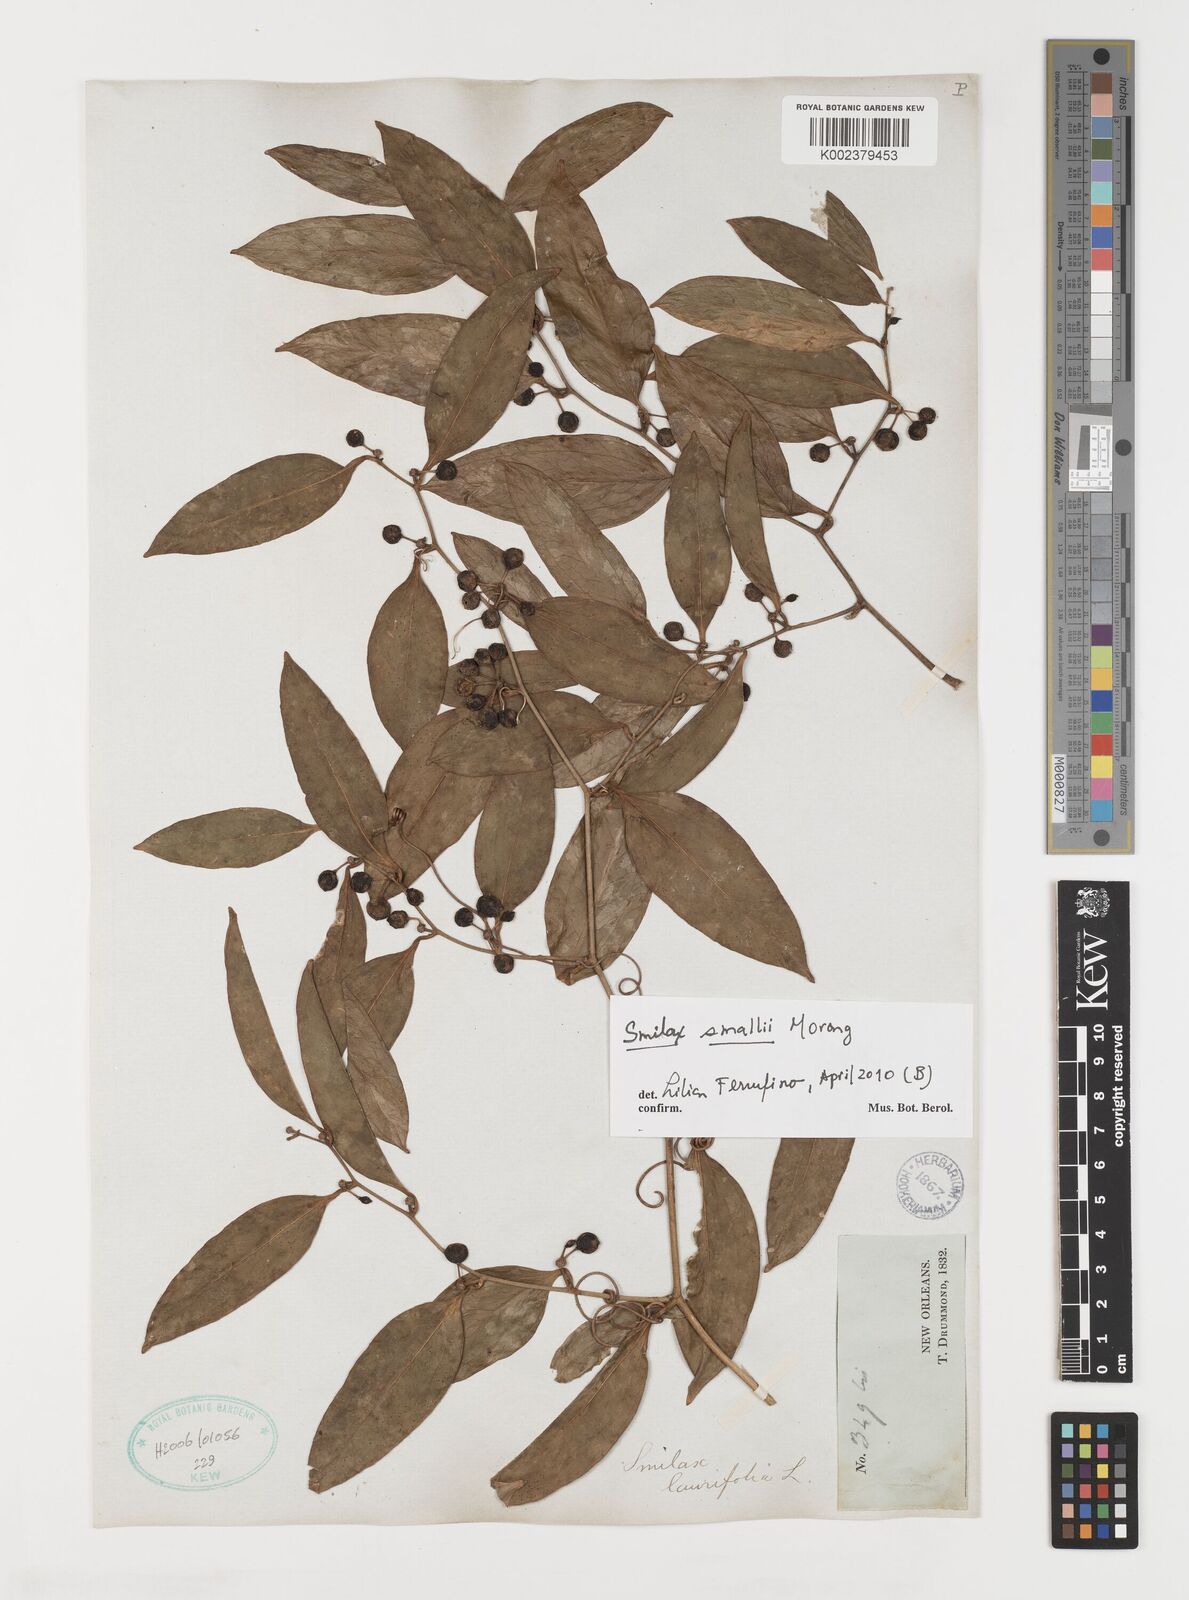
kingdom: Plantae
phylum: Tracheophyta
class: Liliopsida
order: Liliales
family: Smilacaceae
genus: Smilax
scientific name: Smilax maritima
